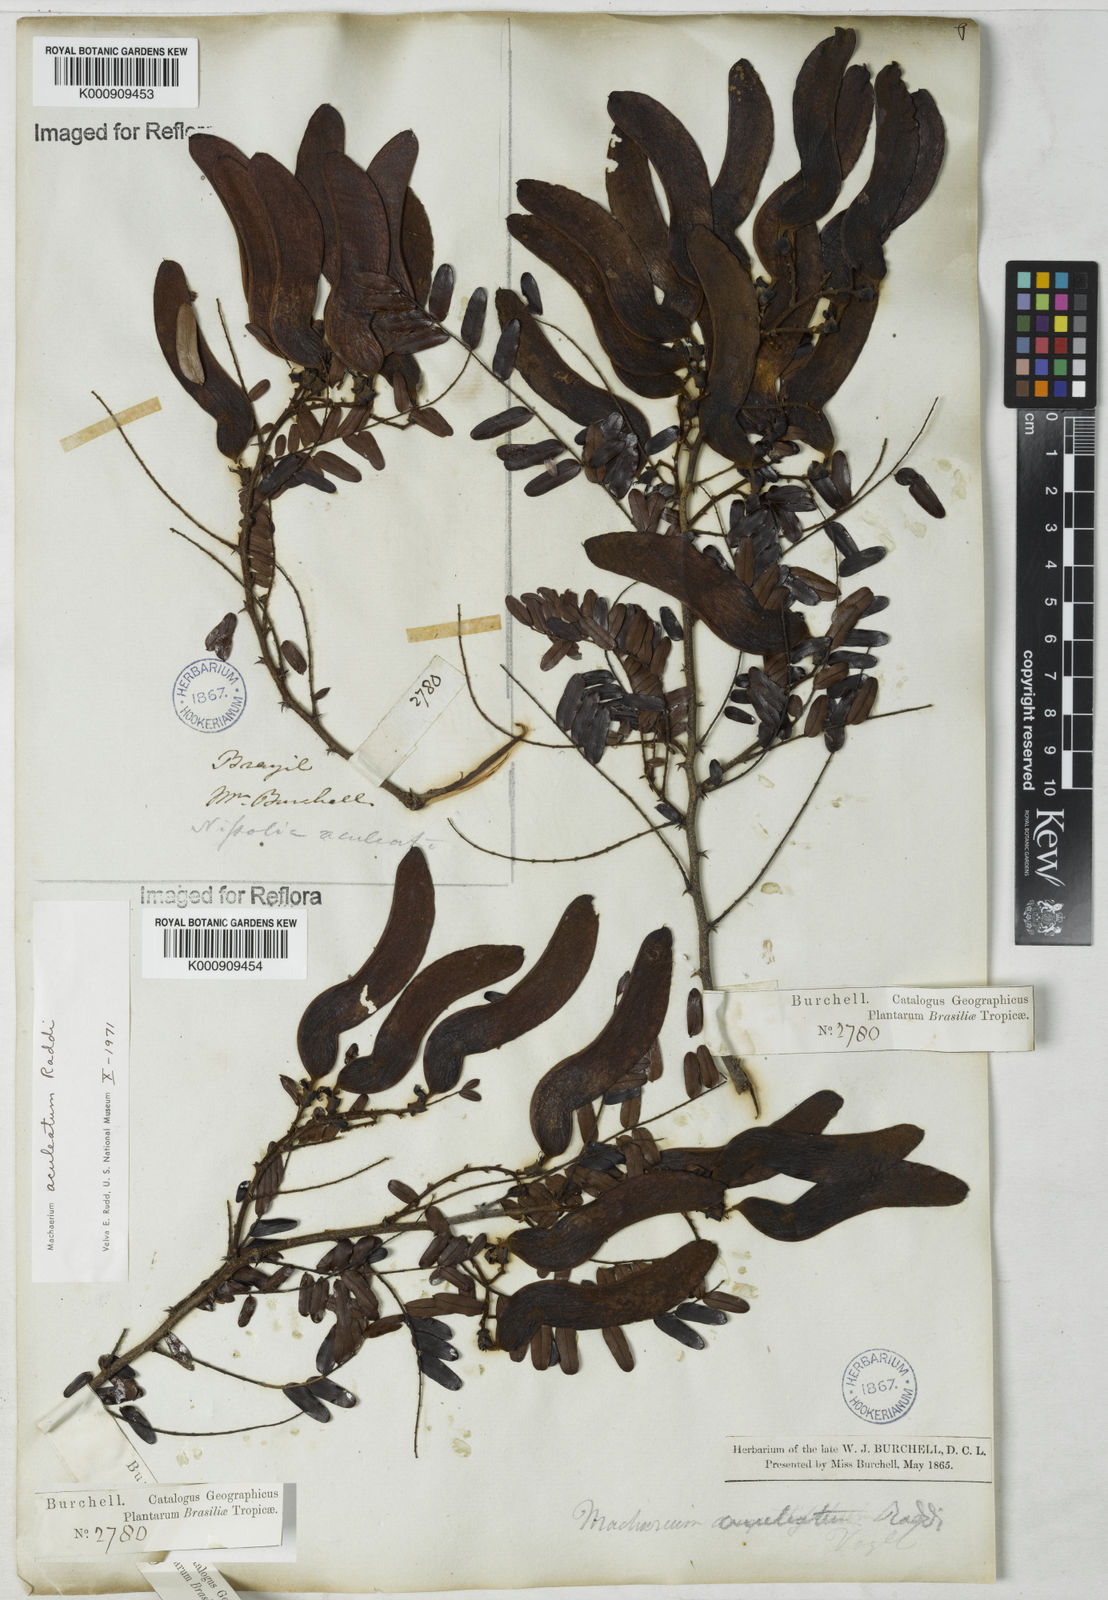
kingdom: Plantae
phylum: Tracheophyta
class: Magnoliopsida
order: Fabales
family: Fabaceae
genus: Machaerium
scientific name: Machaerium aculeatum
